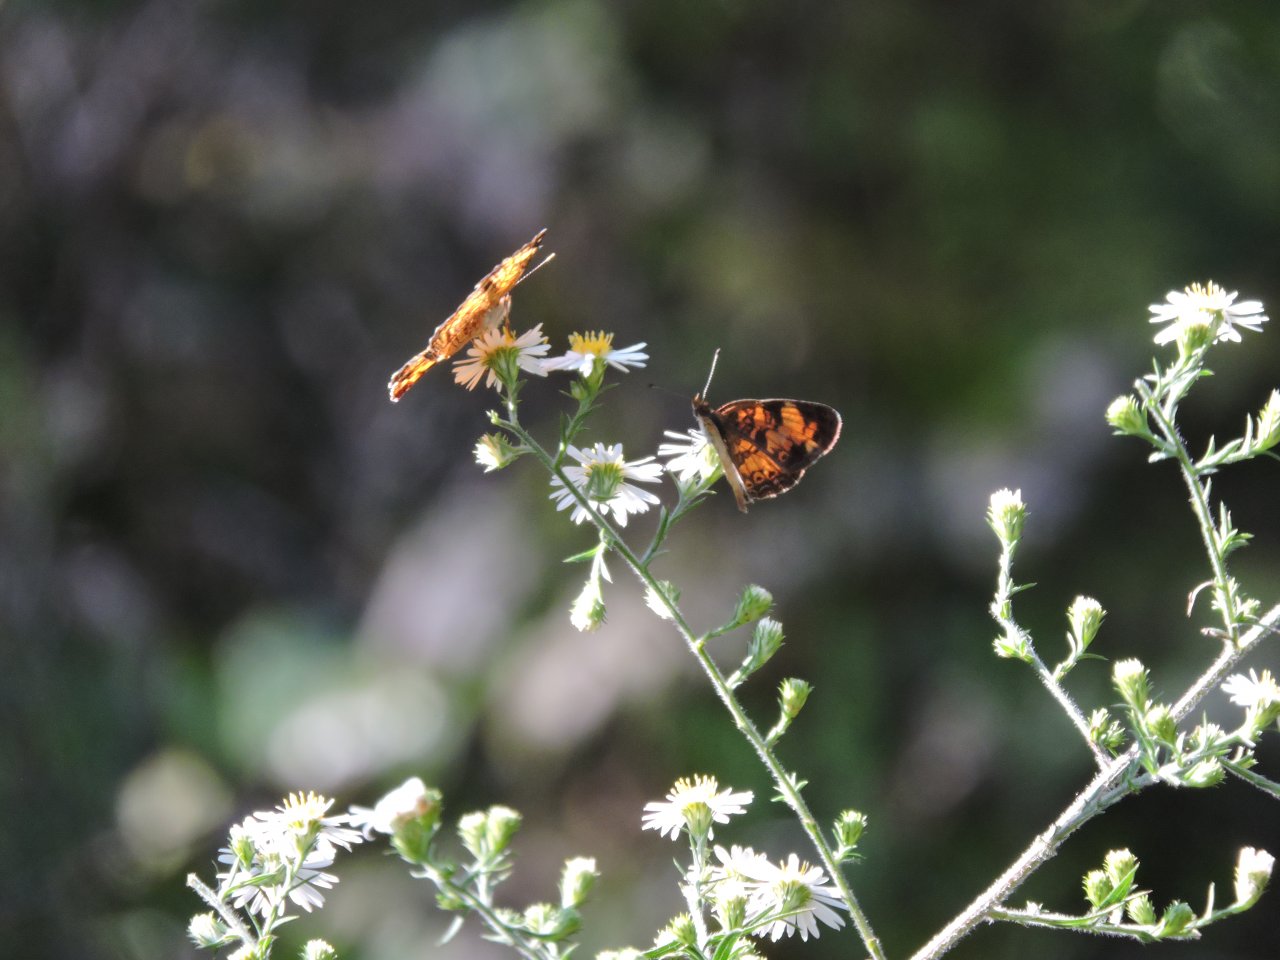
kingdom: Animalia
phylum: Arthropoda
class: Insecta
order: Lepidoptera
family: Nymphalidae
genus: Phyciodes
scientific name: Phyciodes tharos
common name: Pearl Crescent
